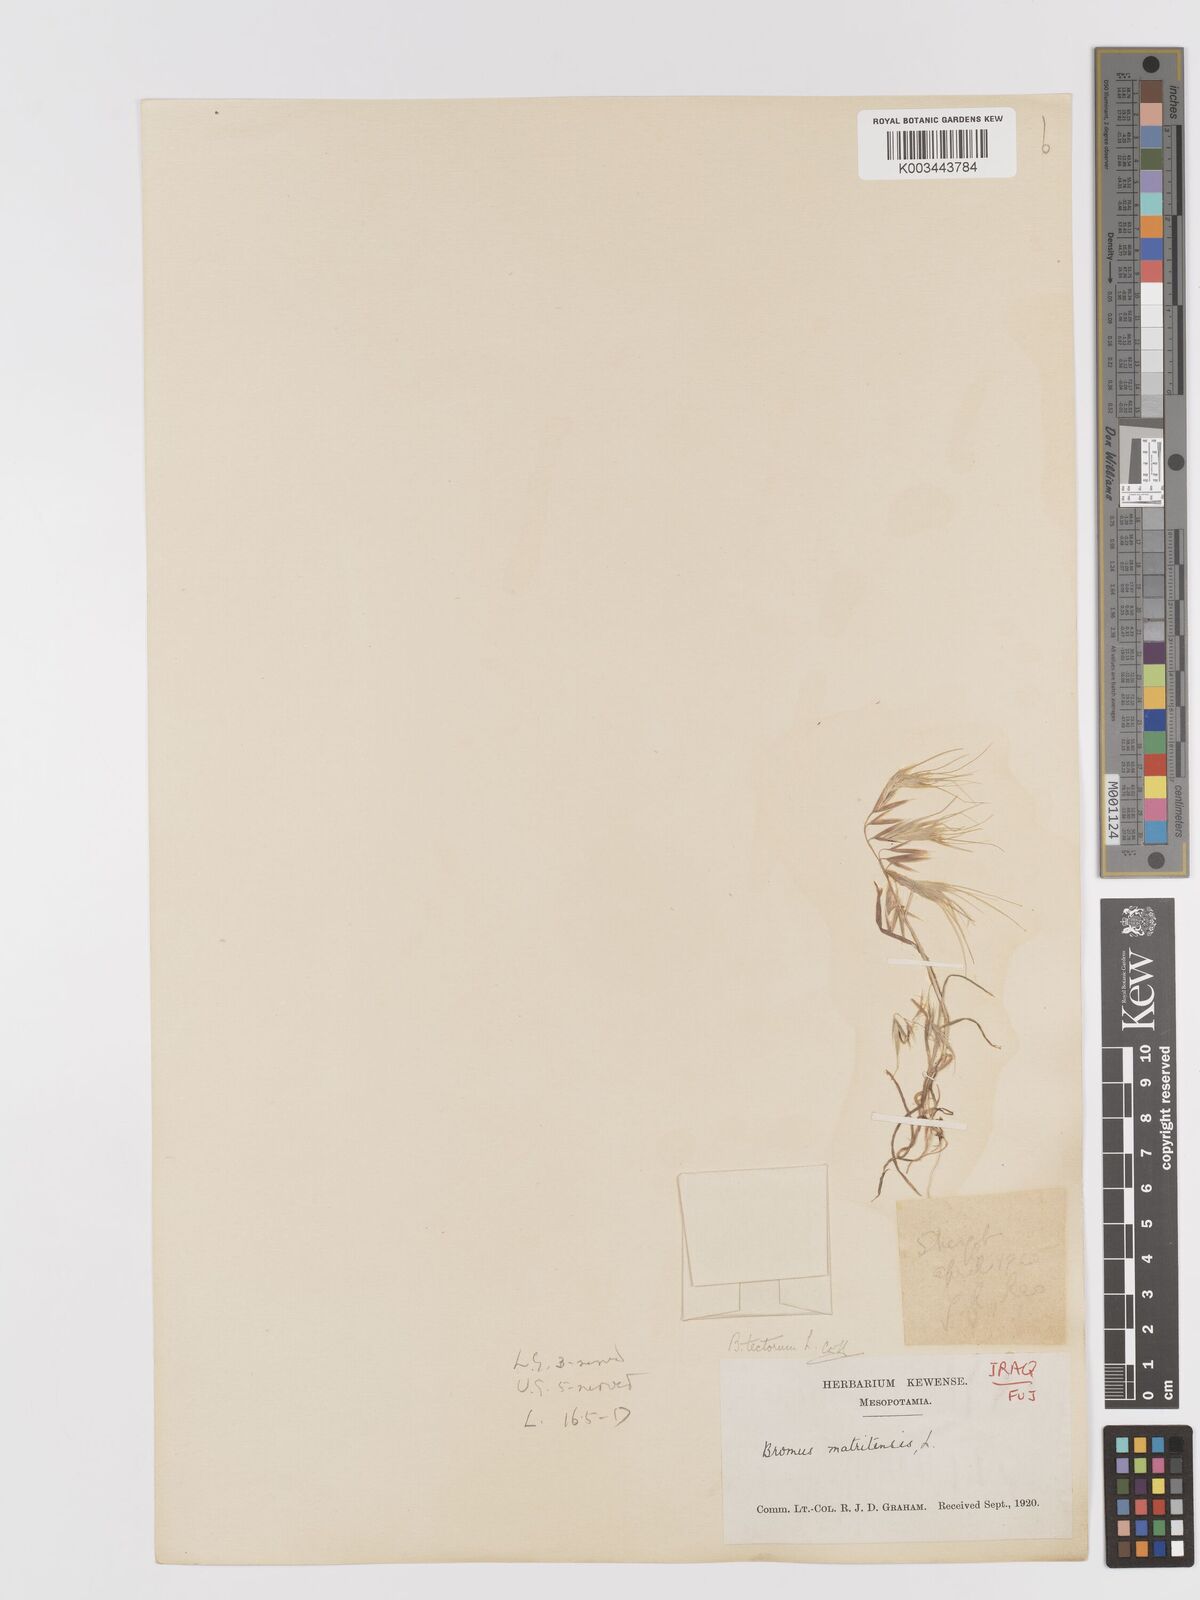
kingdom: Plantae
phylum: Tracheophyta
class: Liliopsida
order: Poales
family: Poaceae
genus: Bromus
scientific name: Bromus tectorum
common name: Cheatgrass
